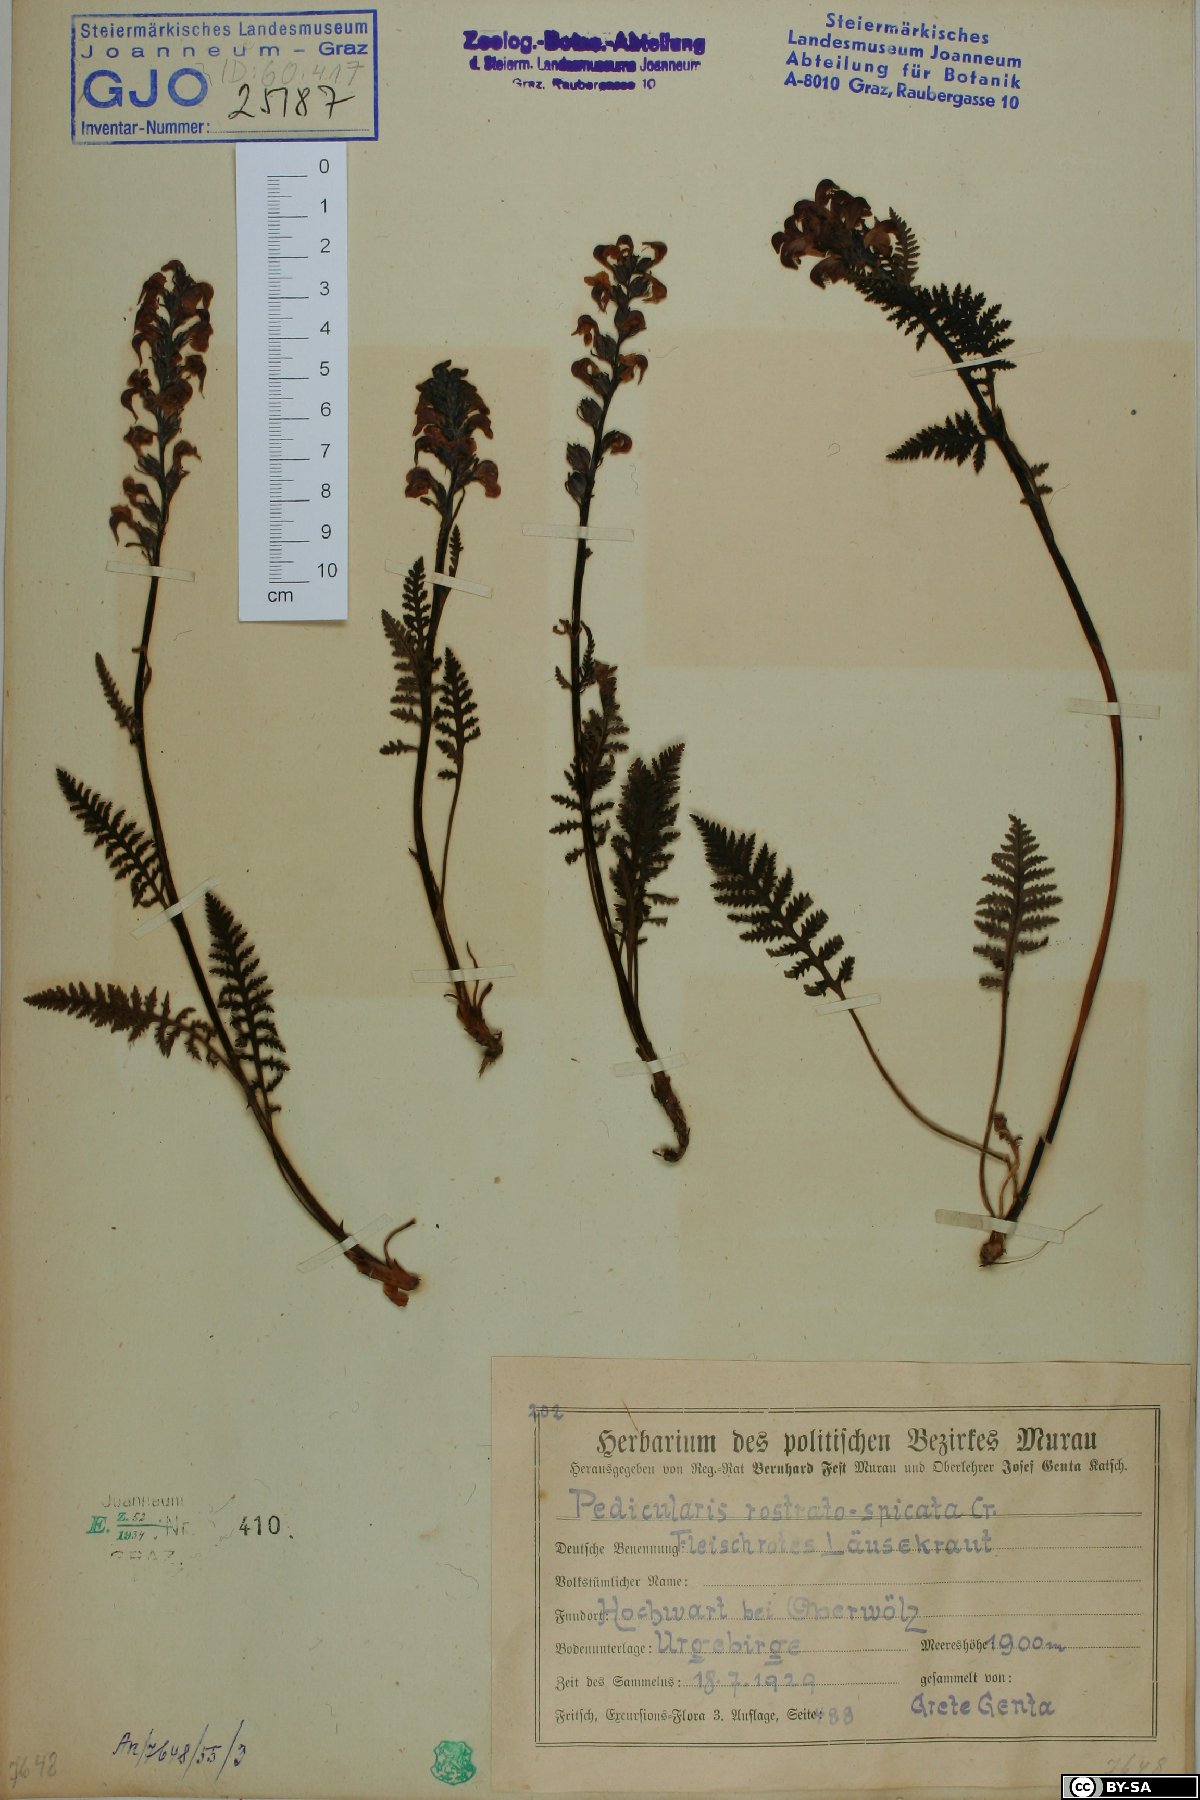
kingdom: Plantae
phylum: Tracheophyta
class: Magnoliopsida
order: Lamiales
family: Orobanchaceae
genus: Pedicularis
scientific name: Pedicularis rostratospicata
